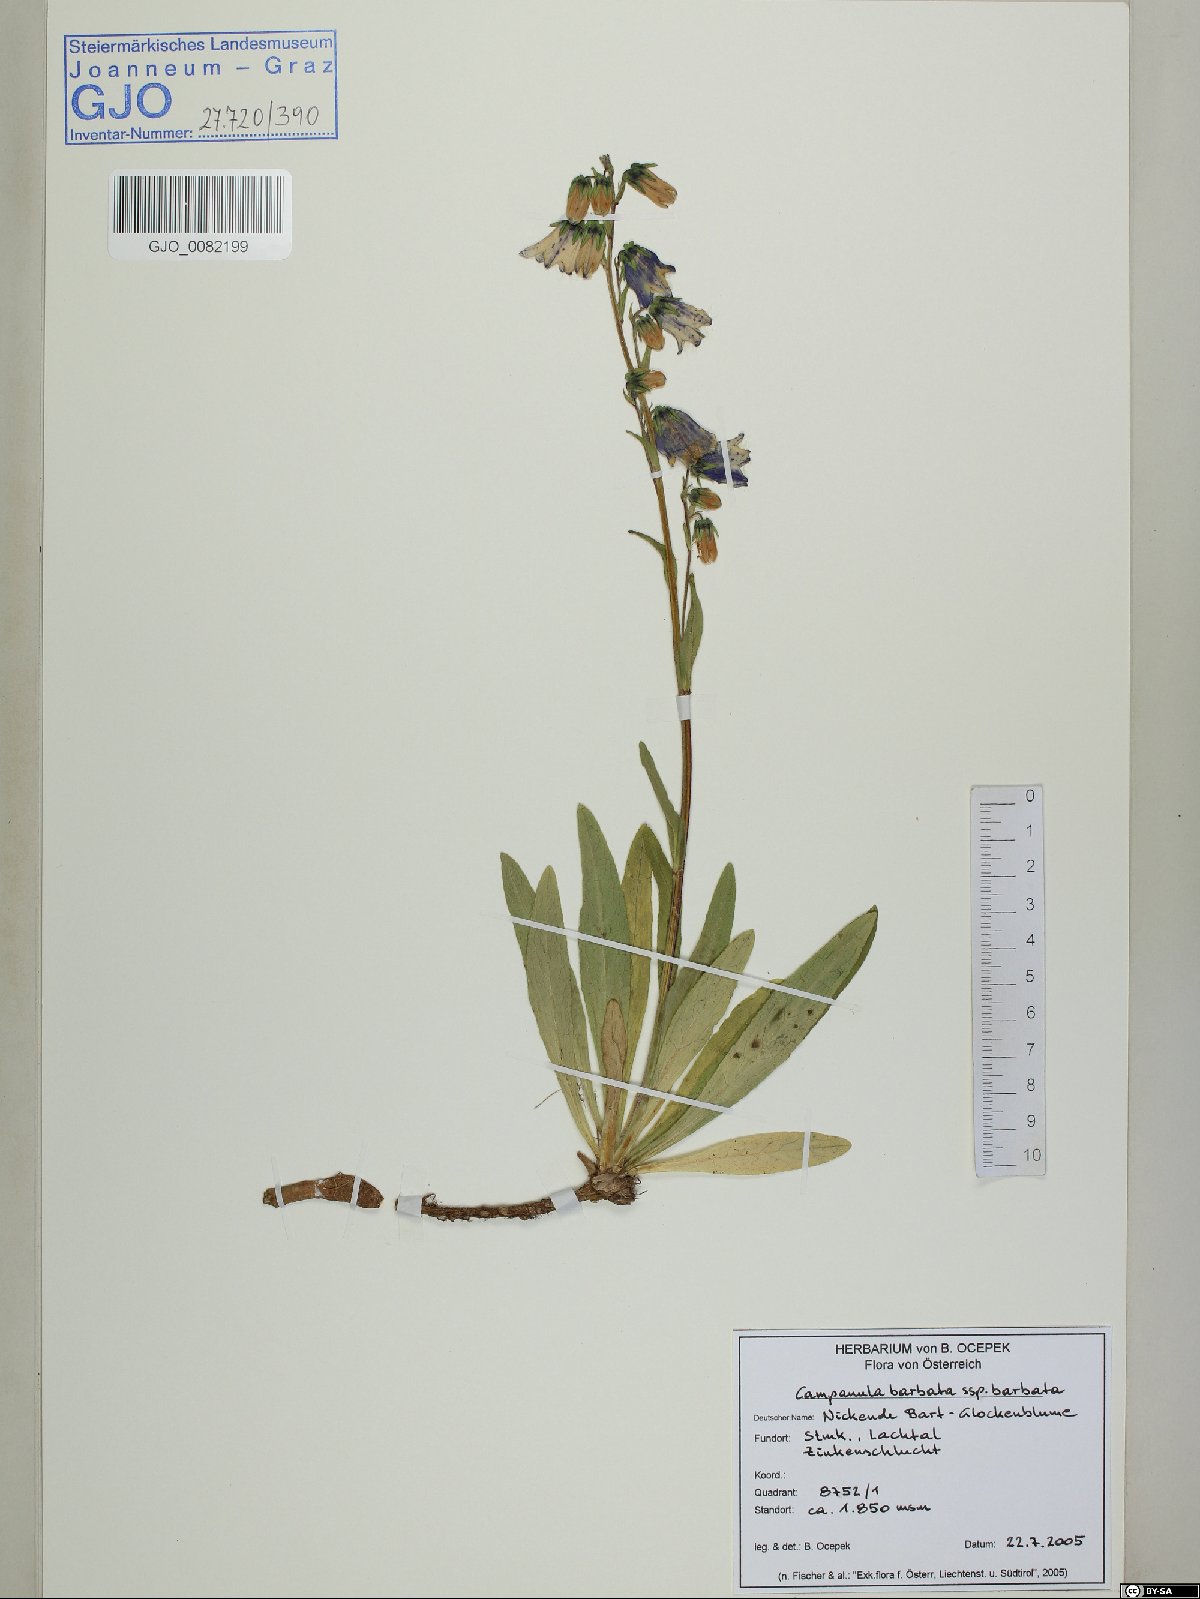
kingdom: Plantae
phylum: Tracheophyta
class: Magnoliopsida
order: Asterales
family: Campanulaceae
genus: Campanula
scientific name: Campanula barbata
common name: Bearded bellflower
